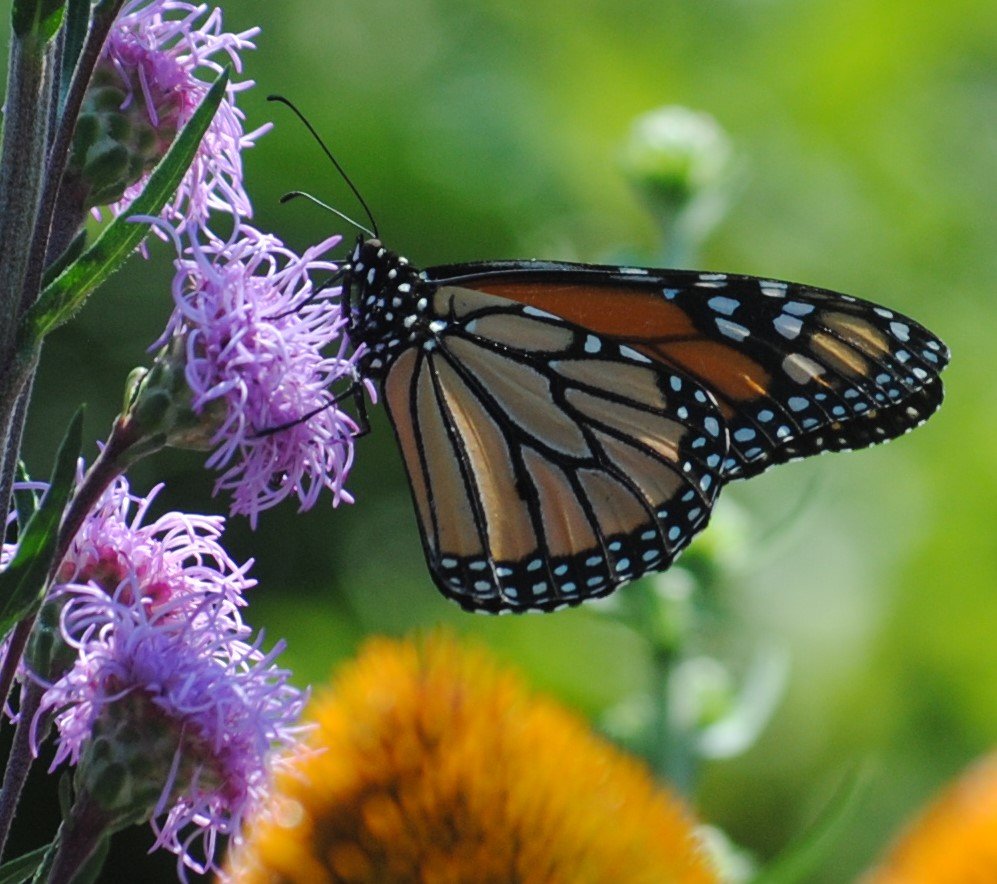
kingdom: Animalia
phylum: Arthropoda
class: Insecta
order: Lepidoptera
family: Nymphalidae
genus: Danaus
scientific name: Danaus plexippus
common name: Monarch
